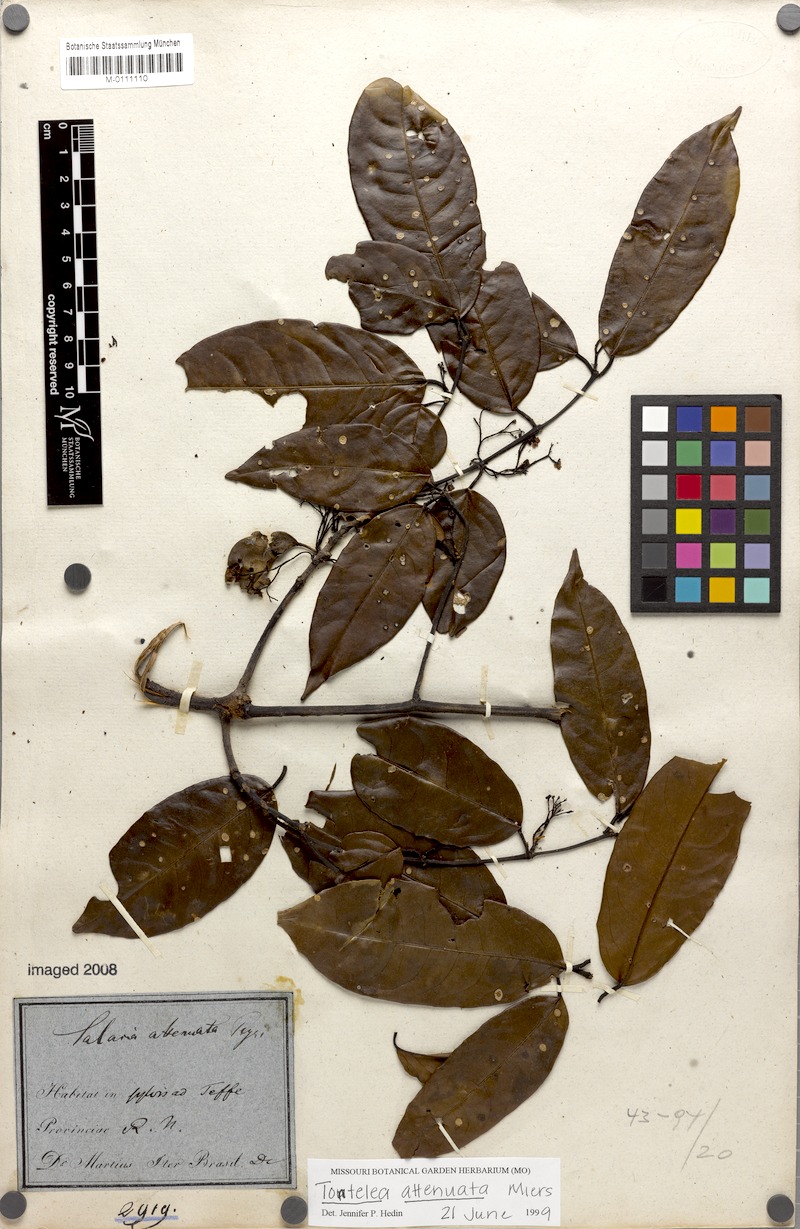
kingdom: Plantae
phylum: Tracheophyta
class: Magnoliopsida
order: Celastrales
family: Celastraceae
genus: Tontelea
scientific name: Tontelea attenuata
